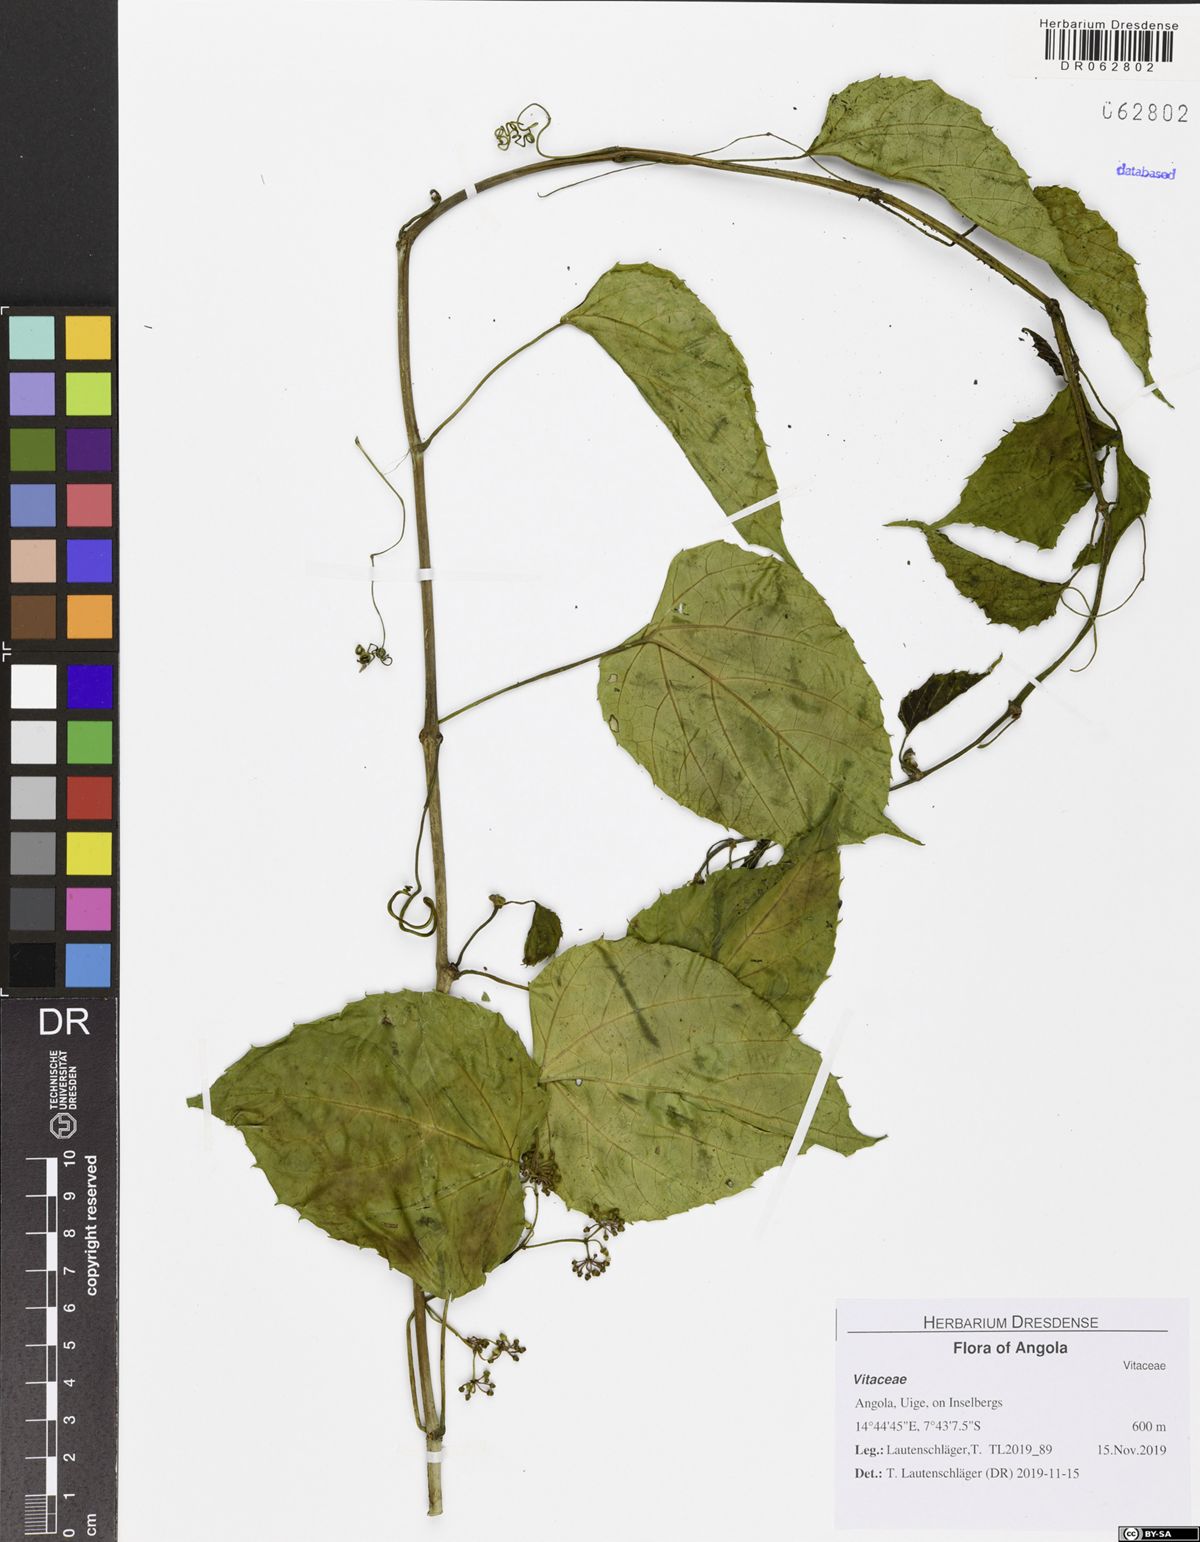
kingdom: Plantae
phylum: Tracheophyta
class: Magnoliopsida
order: Vitales
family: Vitaceae
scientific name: Vitaceae
